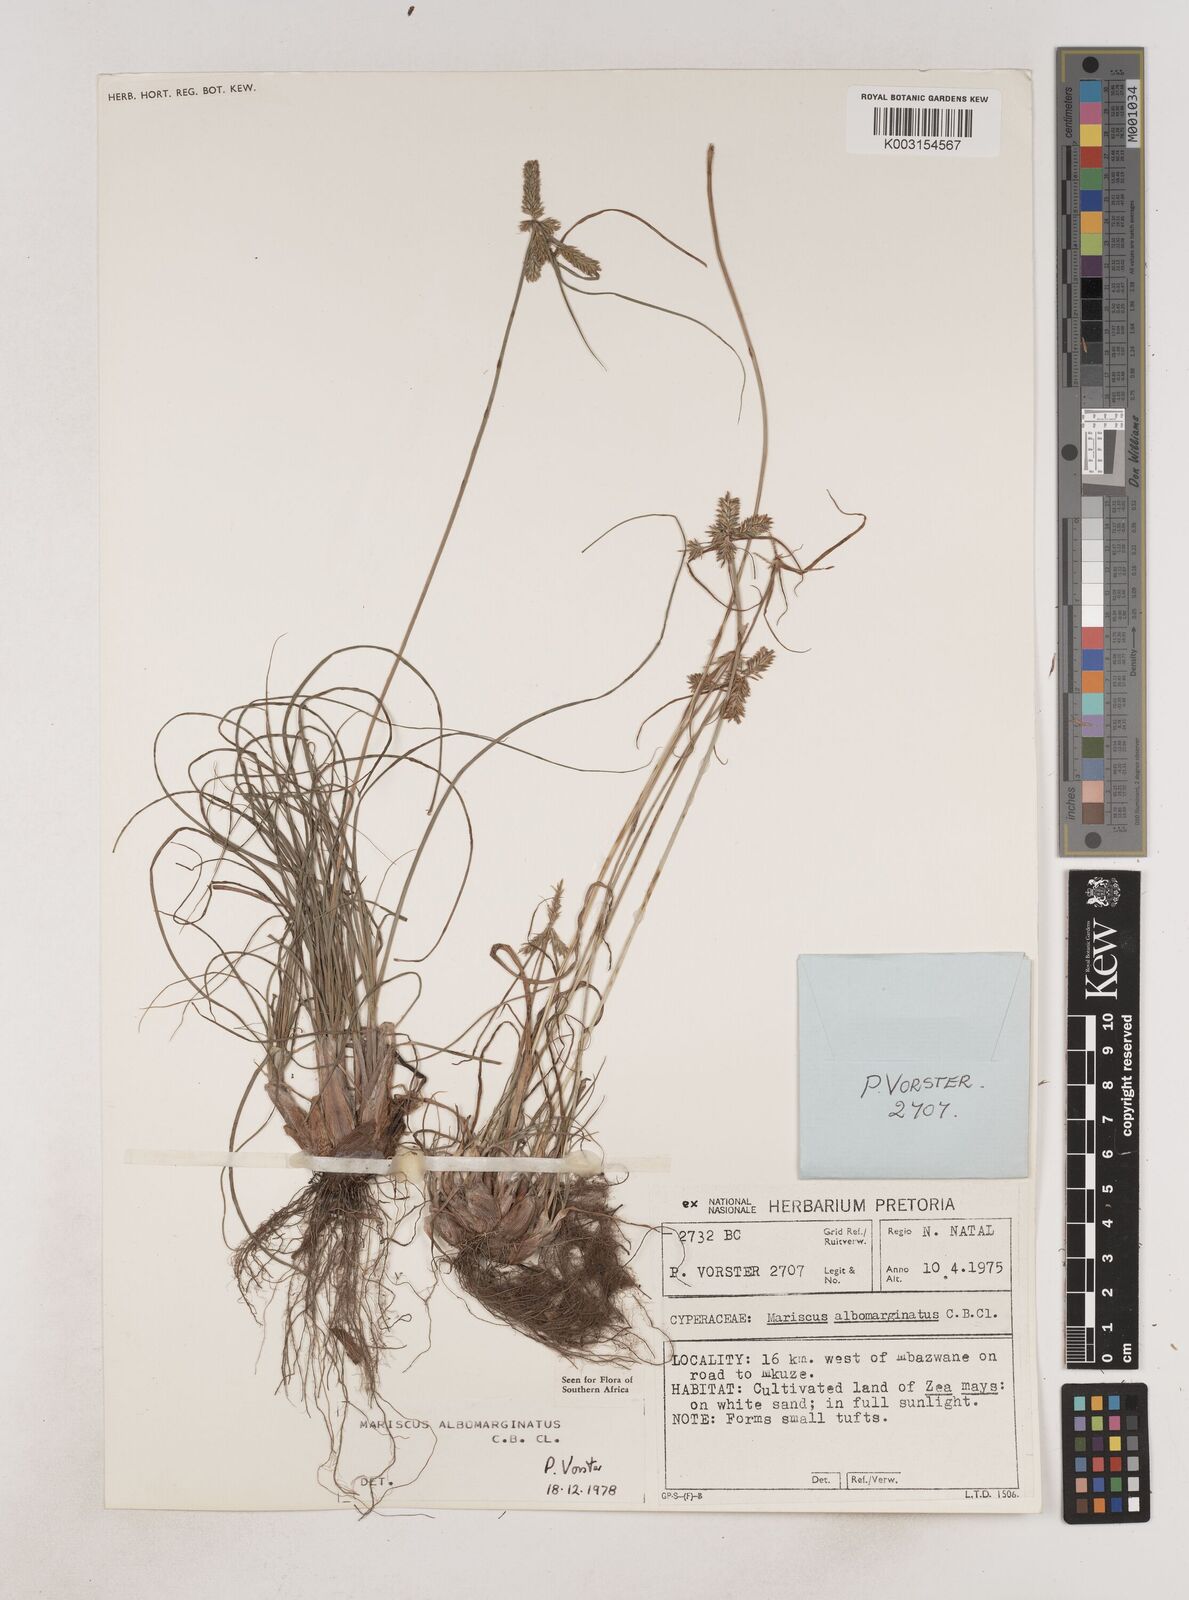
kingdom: Plantae
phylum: Tracheophyta
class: Liliopsida
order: Poales
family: Cyperaceae
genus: Cyperus
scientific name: Cyperus indecorus
